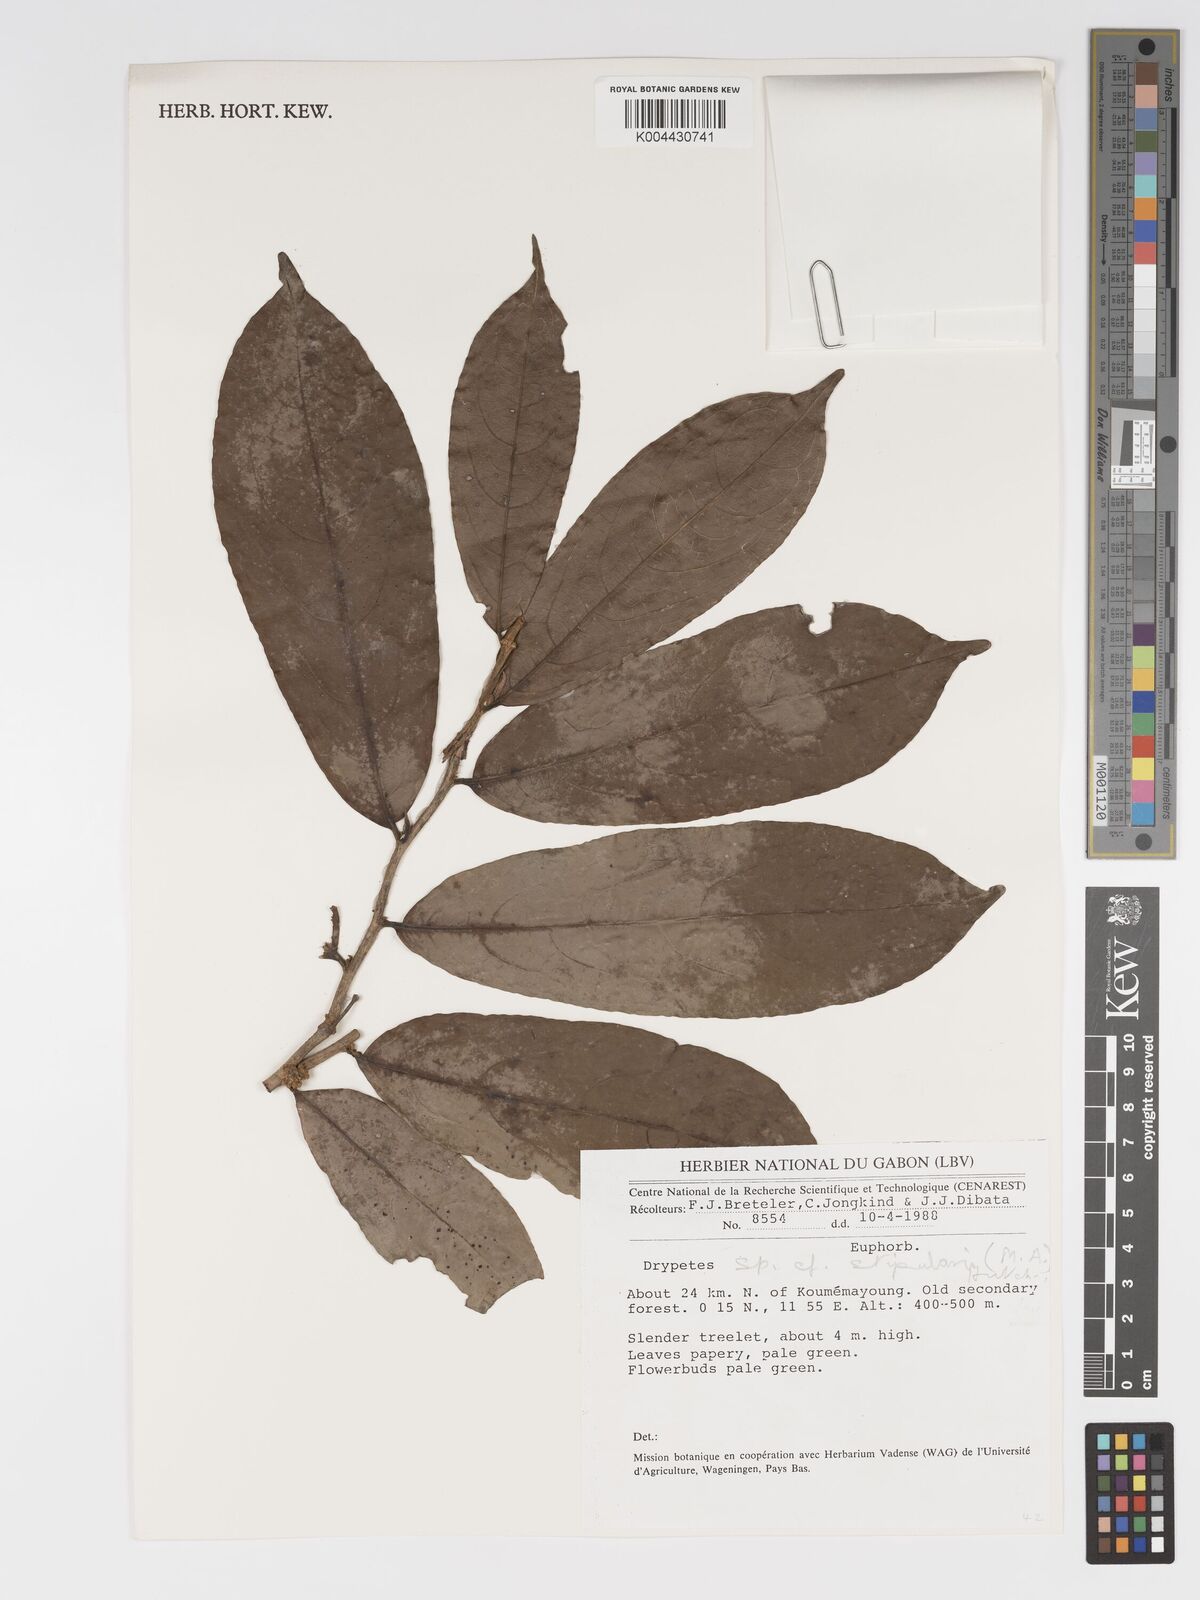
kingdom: Plantae
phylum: Tracheophyta
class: Magnoliopsida
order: Malpighiales
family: Putranjivaceae
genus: Drypetes
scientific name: Drypetes stipularis
